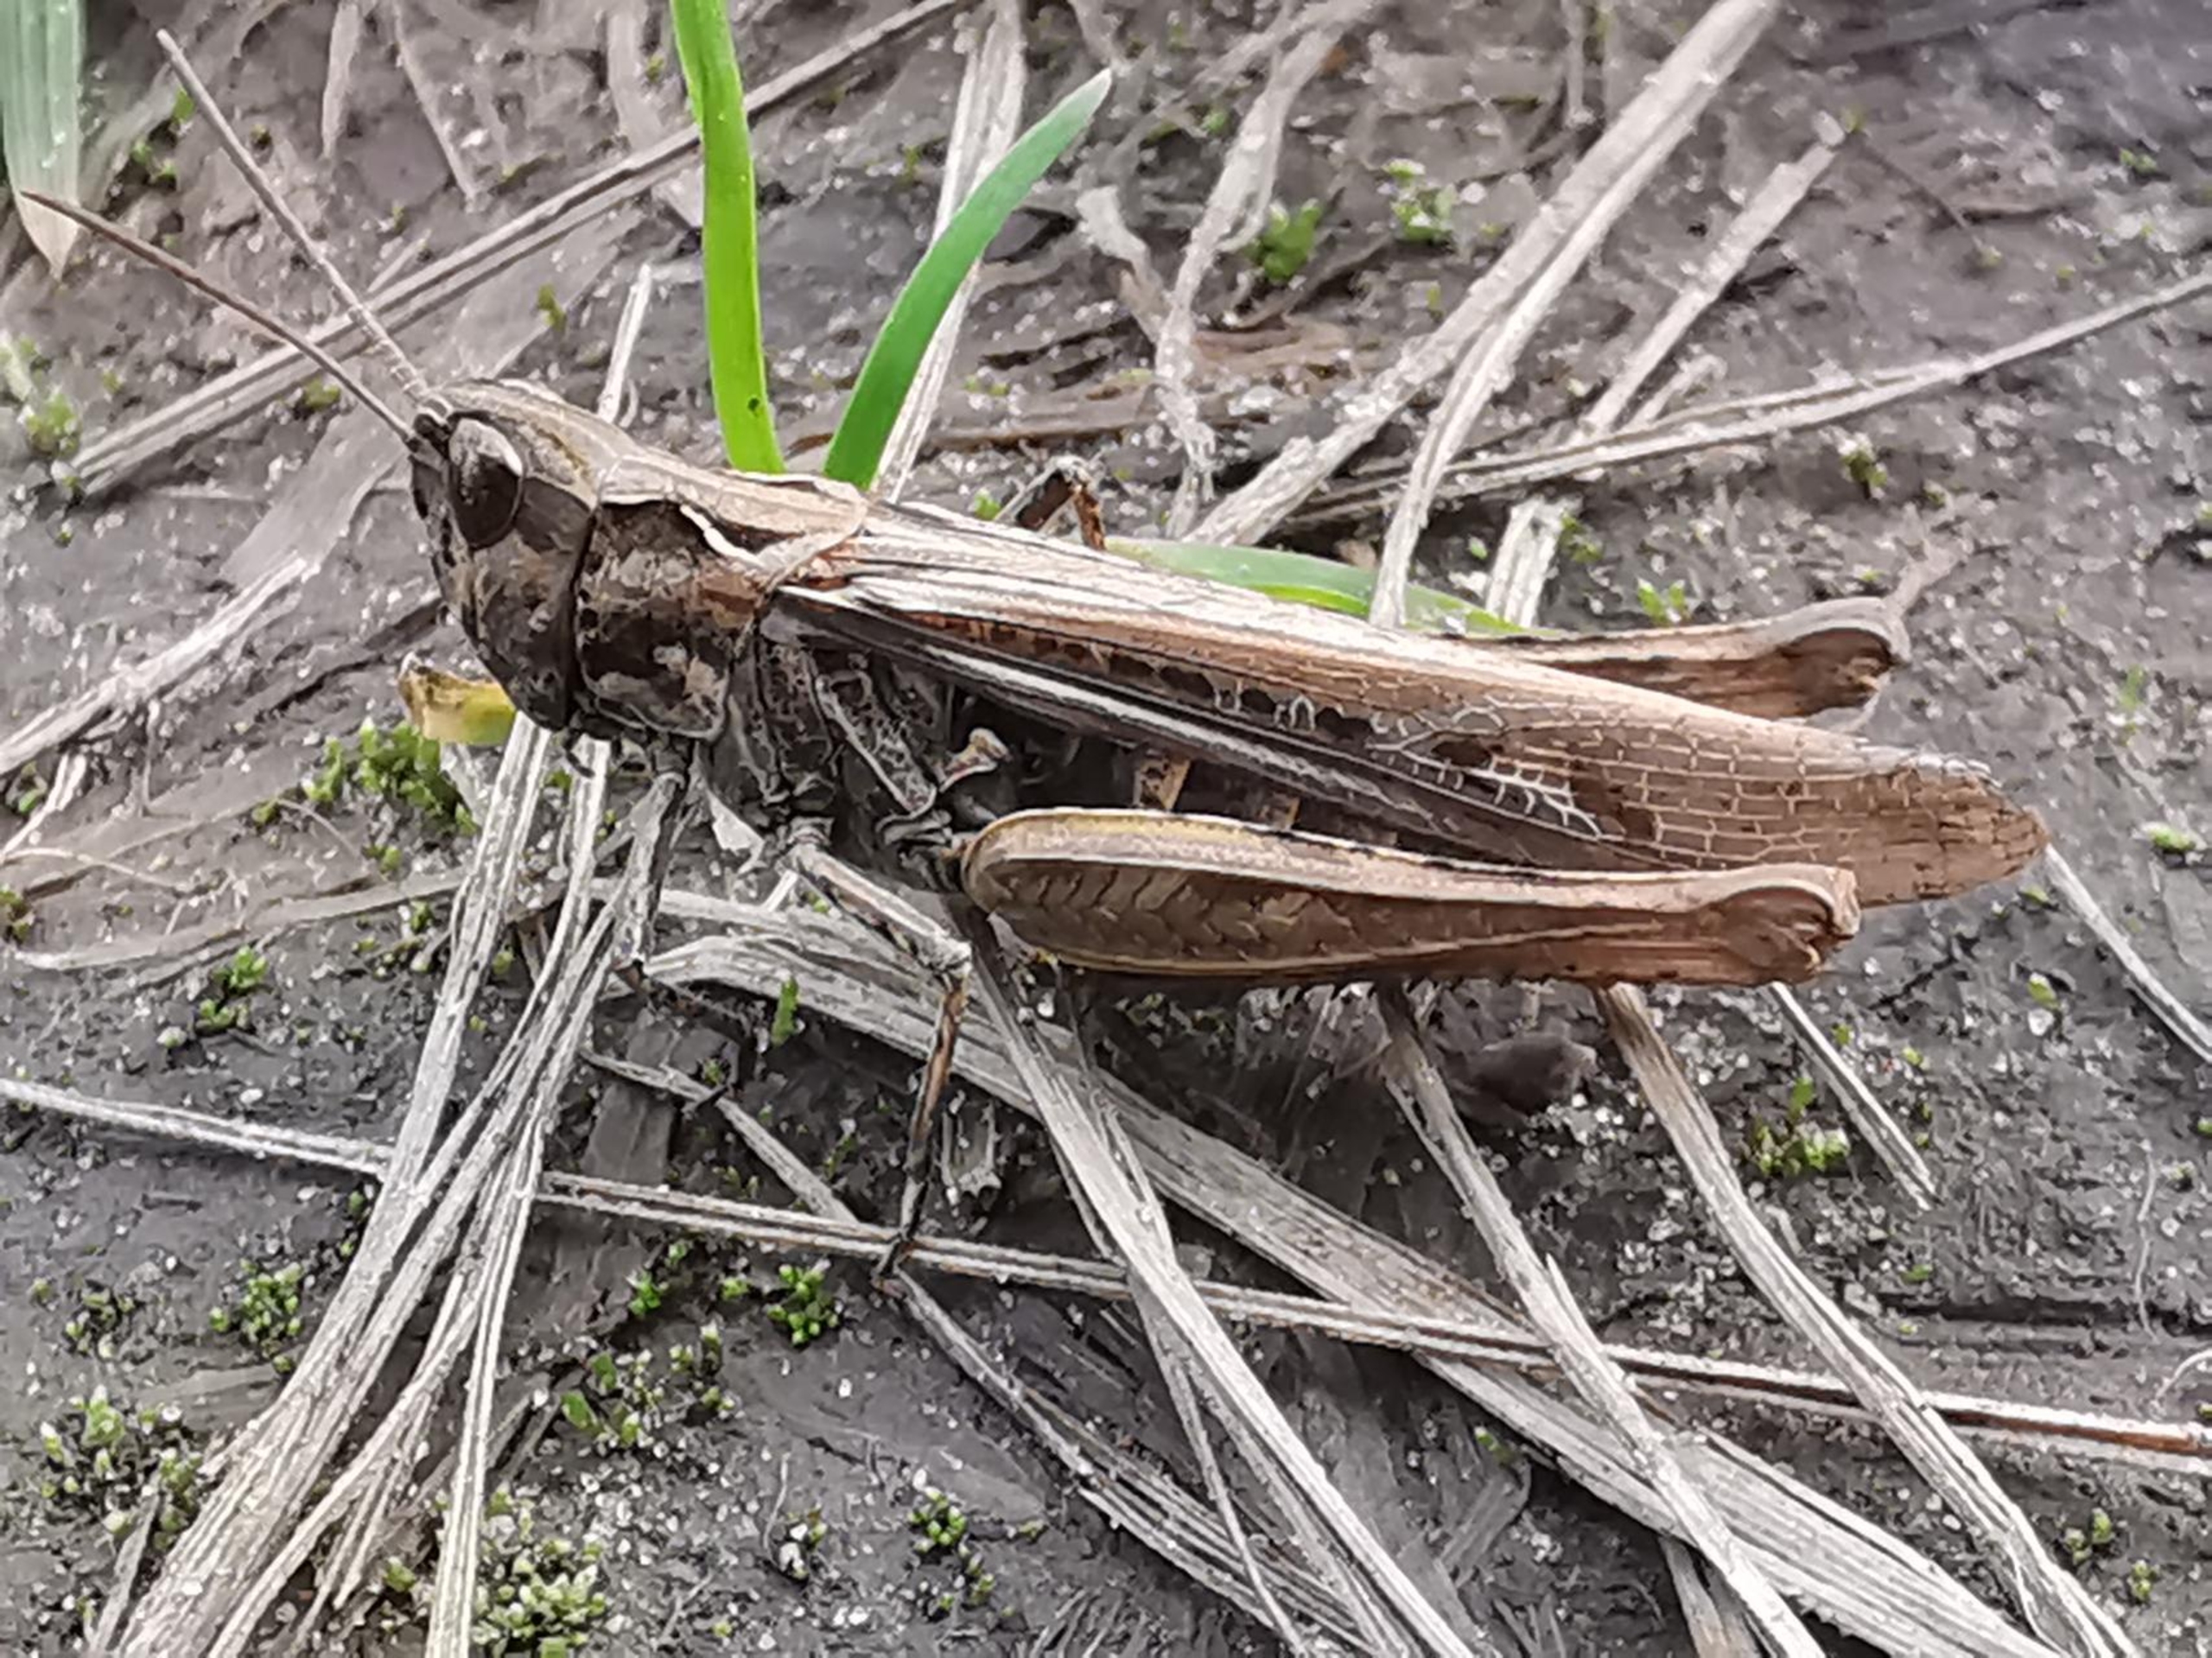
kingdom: Animalia
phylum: Arthropoda
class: Insecta
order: Orthoptera
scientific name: Orthoptera
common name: Græshopper
